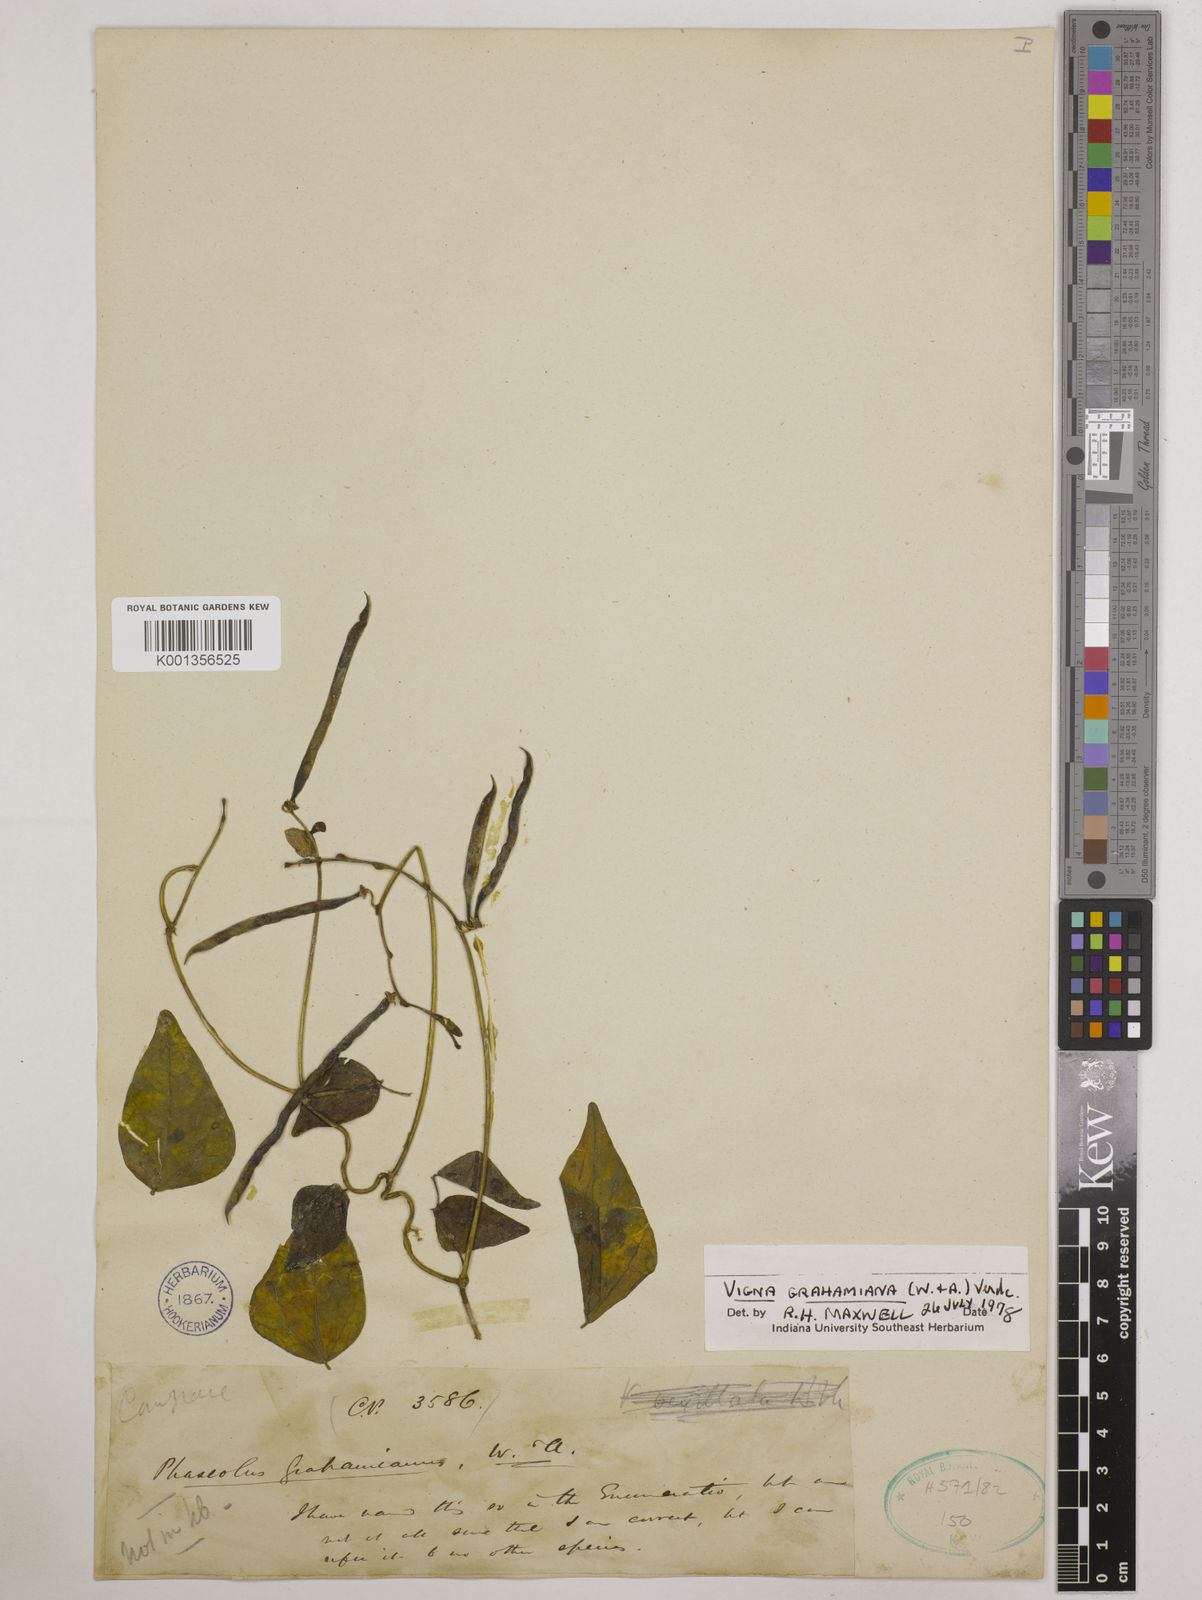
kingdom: Plantae
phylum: Tracheophyta
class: Magnoliopsida
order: Fabales
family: Fabaceae
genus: Wajira
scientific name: Wajira grahamiana
